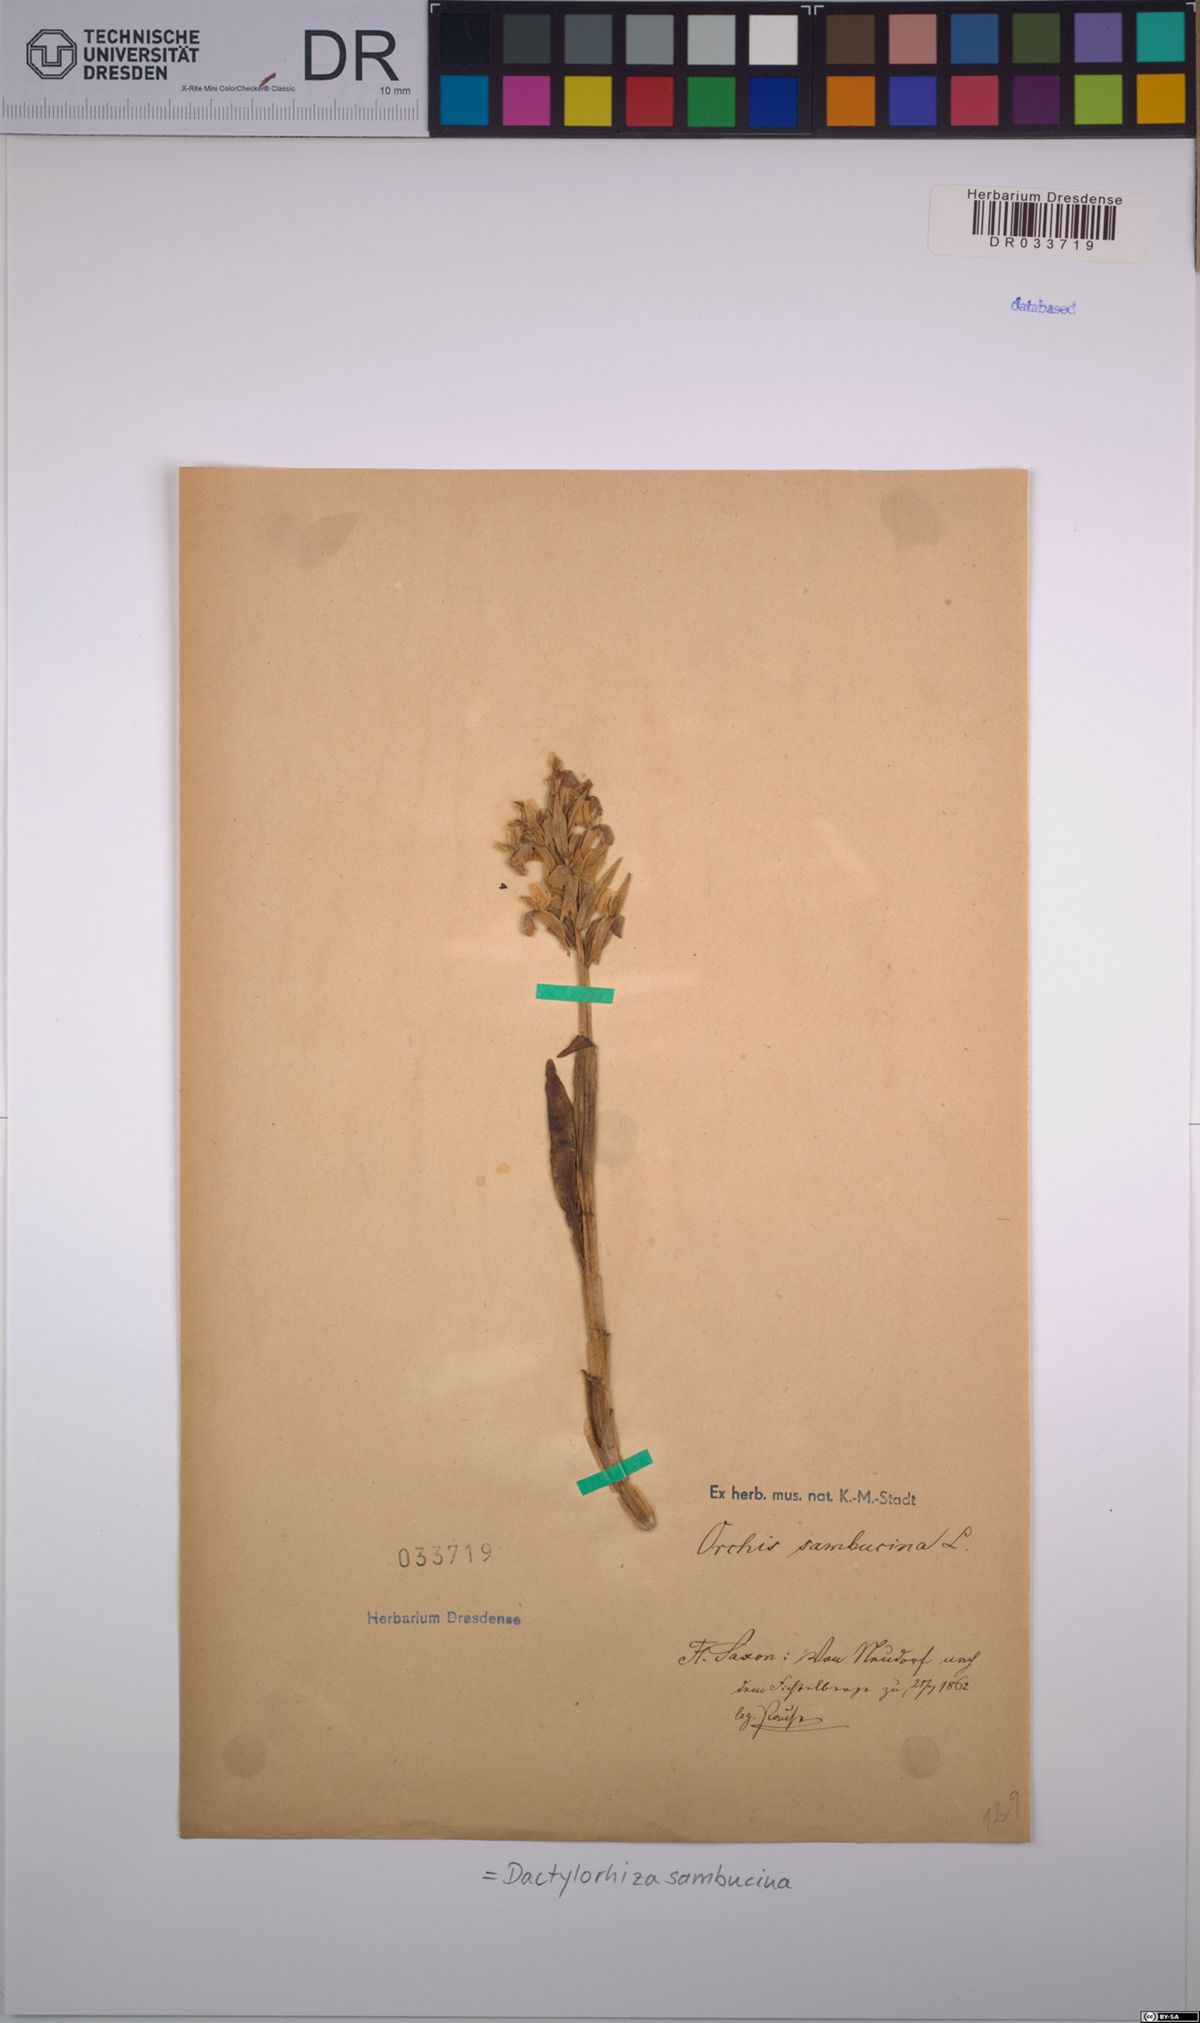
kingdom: Plantae
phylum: Tracheophyta
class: Liliopsida
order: Asparagales
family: Orchidaceae
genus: Dactylorhiza
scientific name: Dactylorhiza sambucina
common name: Elder-flowered orchid
